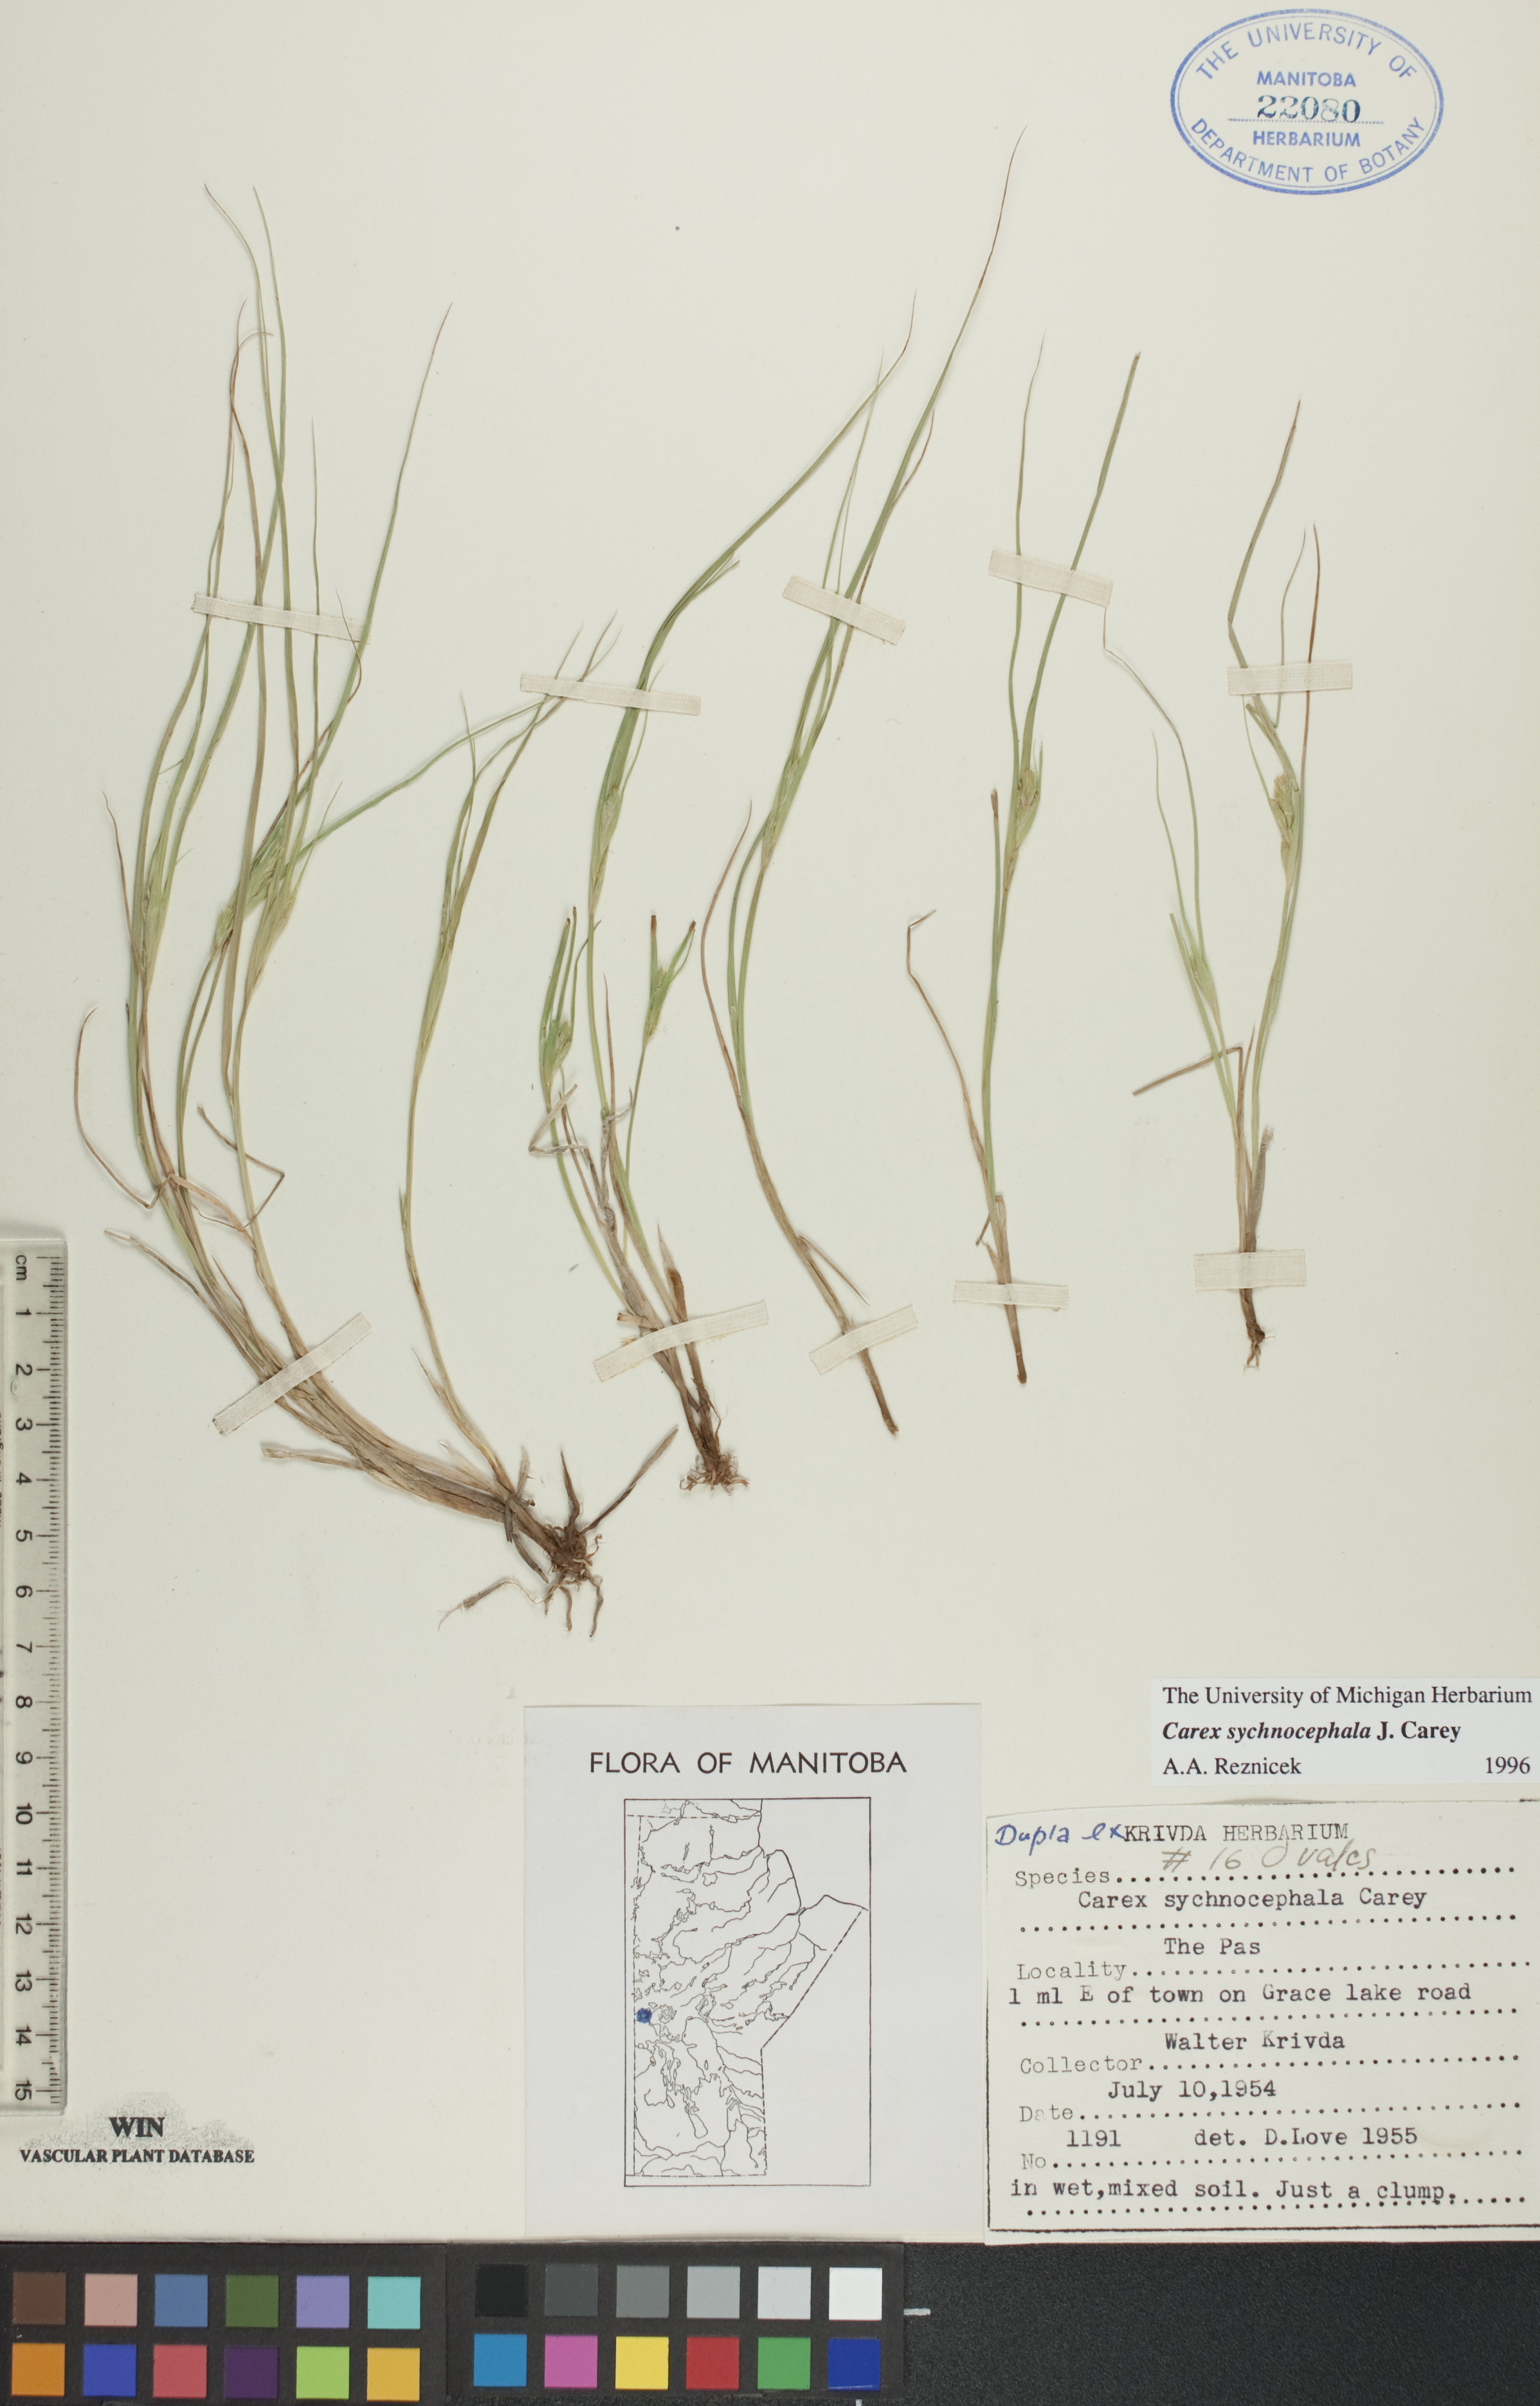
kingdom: Plantae
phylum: Tracheophyta
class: Liliopsida
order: Poales
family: Cyperaceae
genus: Carex
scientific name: Carex sychnocephala
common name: Dense long-beaked sedge
